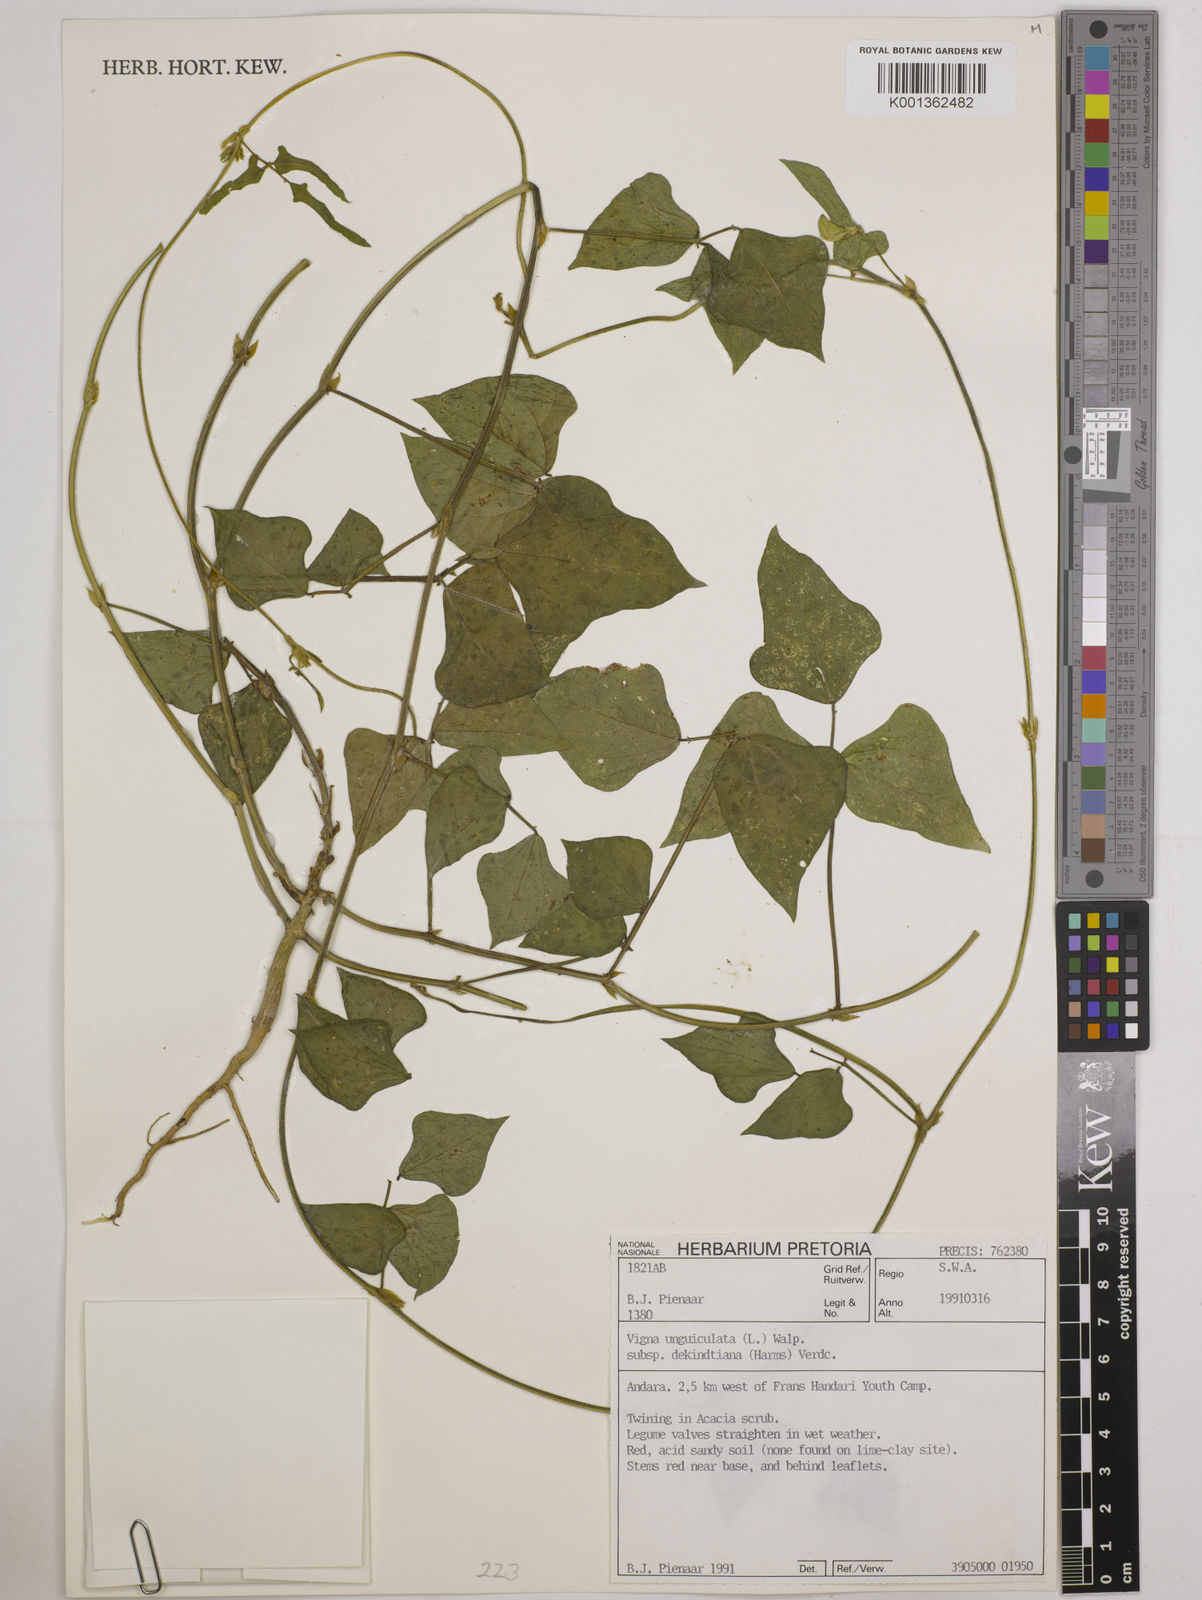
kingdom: Plantae
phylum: Tracheophyta
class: Magnoliopsida
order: Fabales
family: Fabaceae
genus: Vigna
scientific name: Vigna
